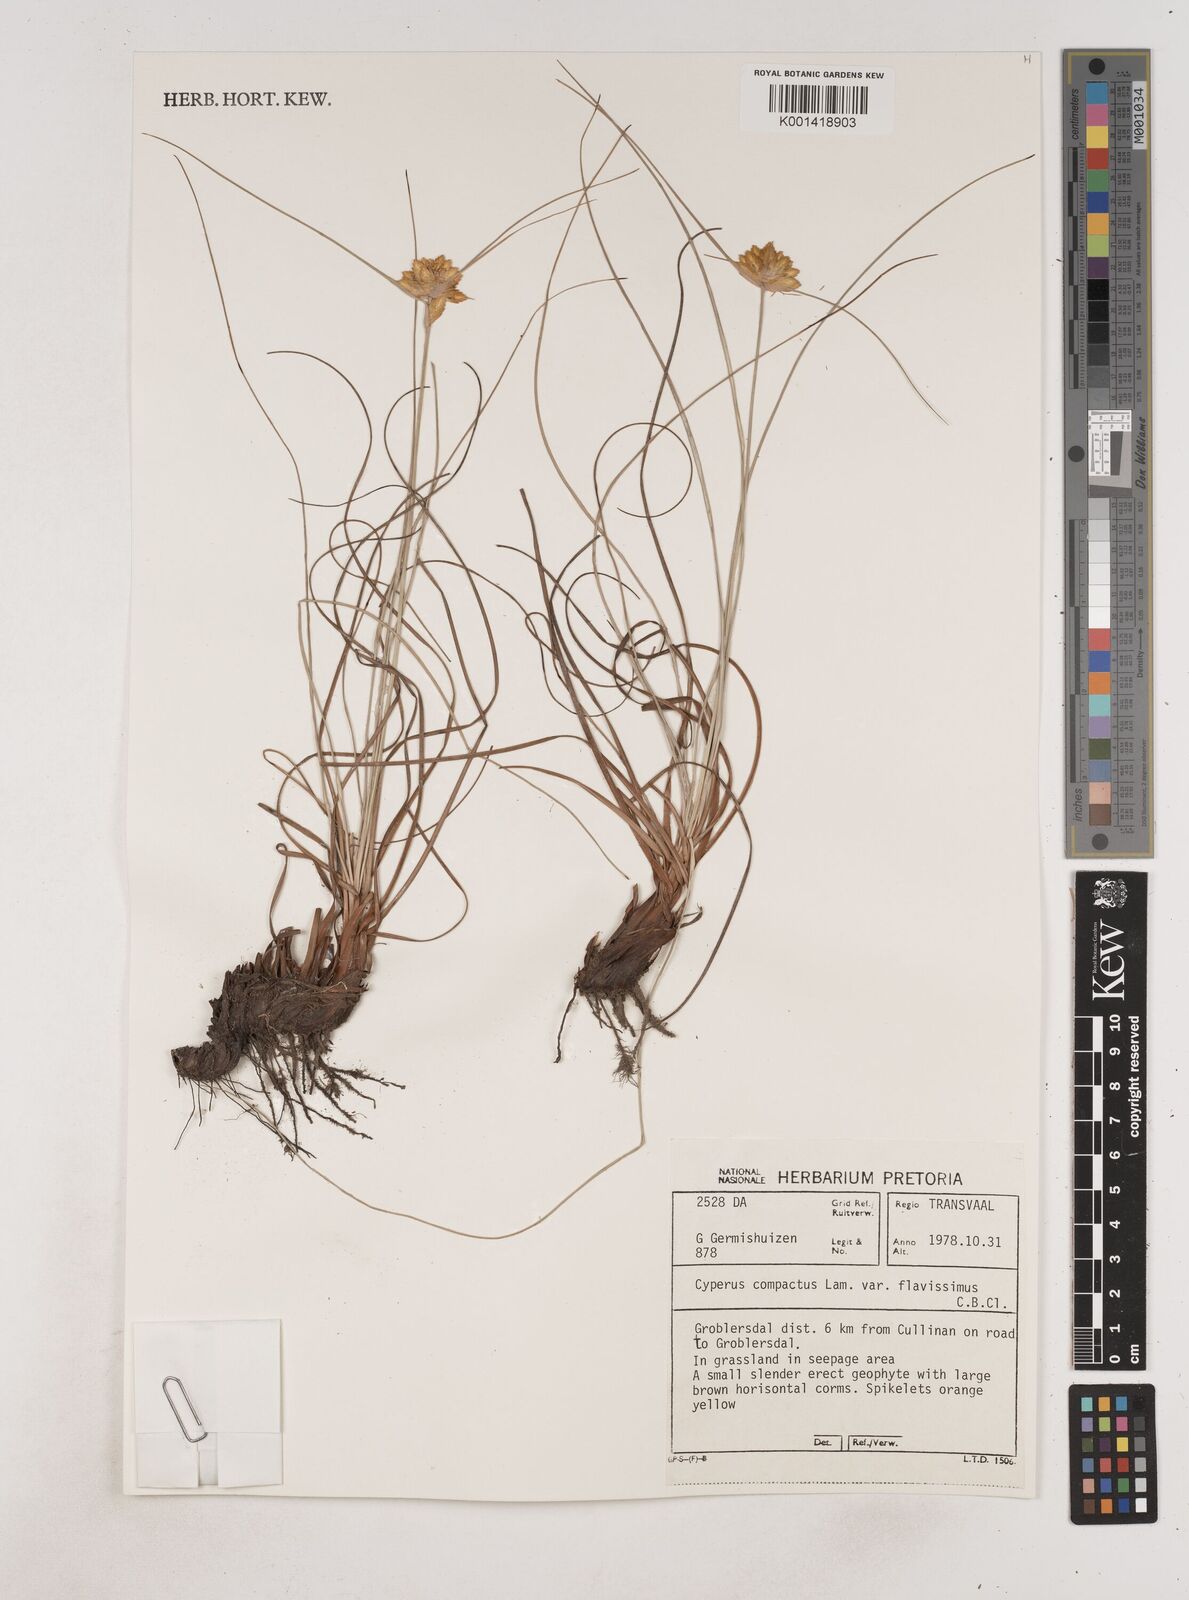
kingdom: Plantae
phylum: Tracheophyta
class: Liliopsida
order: Poales
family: Cyperaceae
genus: Cyperus
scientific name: Cyperus sphaerocephalus
